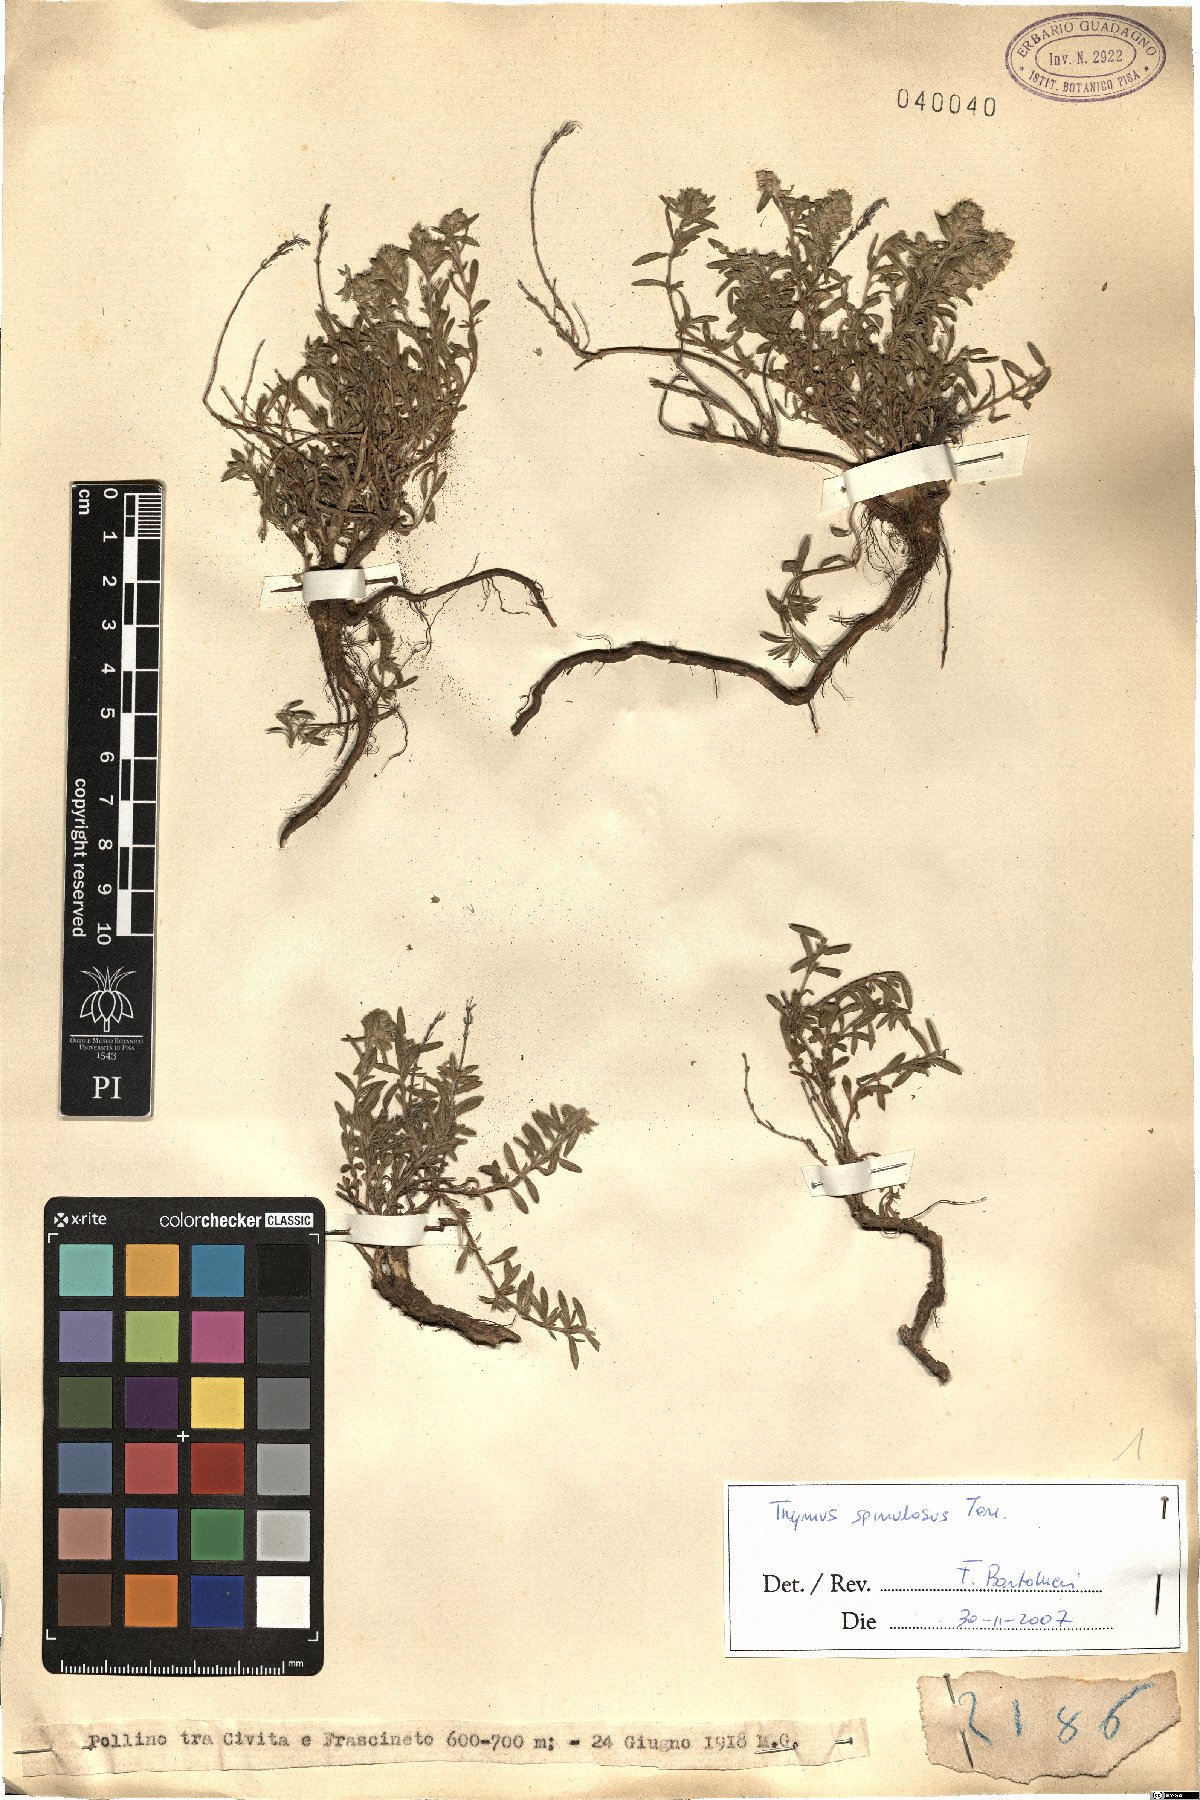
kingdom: Plantae
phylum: Tracheophyta
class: Magnoliopsida
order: Lamiales
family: Lamiaceae
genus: Thymus
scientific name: Thymus spinulosus
